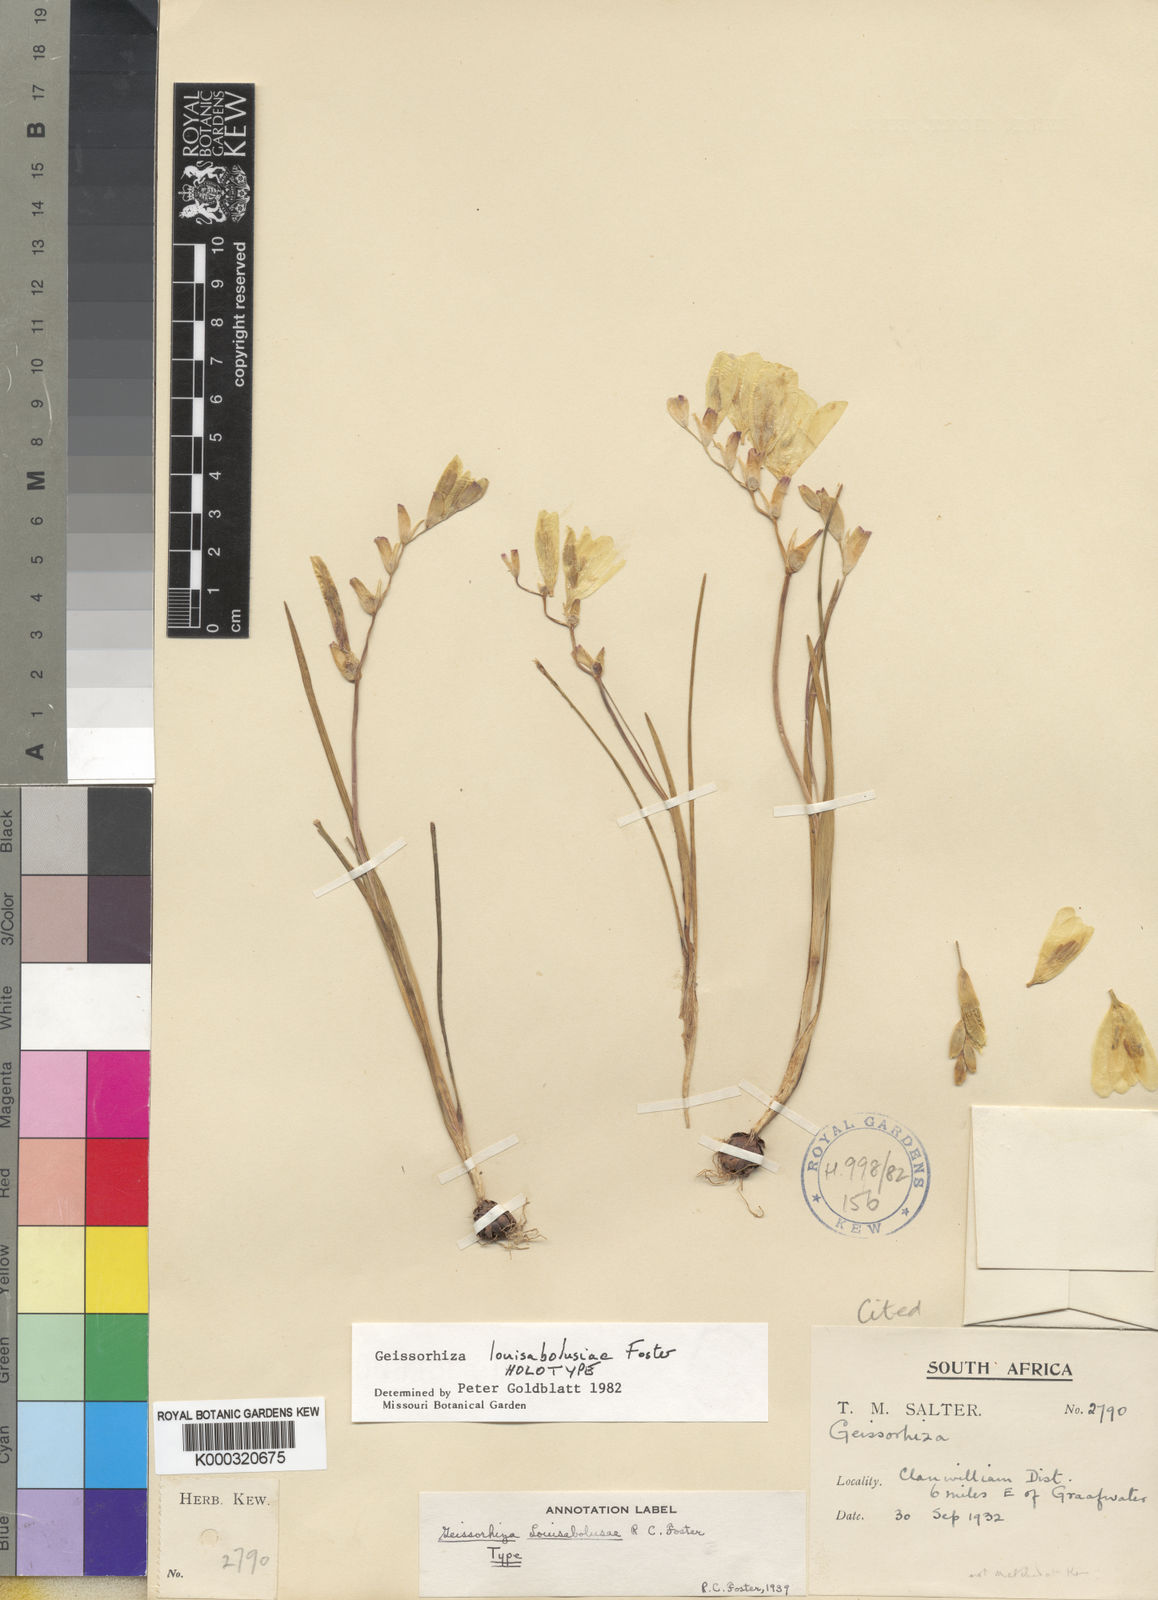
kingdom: Plantae
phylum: Tracheophyta
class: Liliopsida
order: Asparagales
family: Iridaceae
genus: Geissorhiza
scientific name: Geissorhiza louisabolusiae
